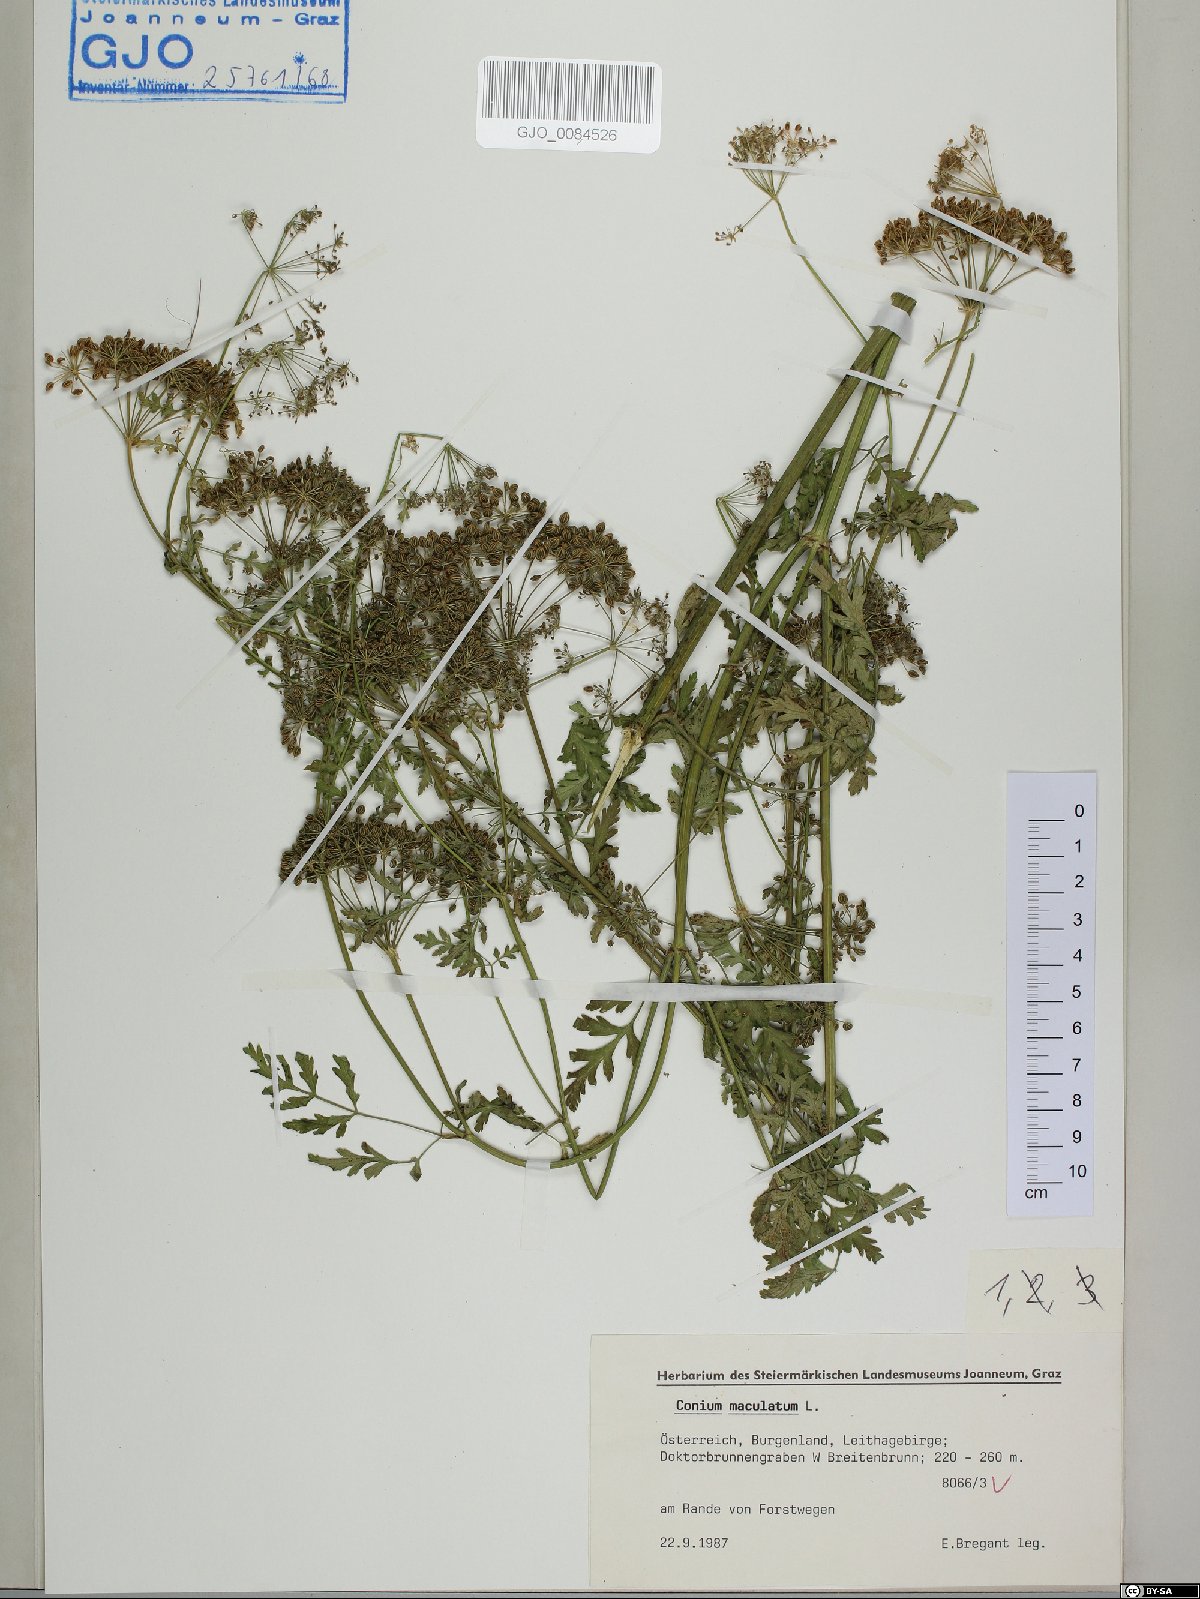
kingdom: Plantae
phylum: Tracheophyta
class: Magnoliopsida
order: Apiales
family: Apiaceae
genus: Conium
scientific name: Conium maculatum
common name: Hemlock
